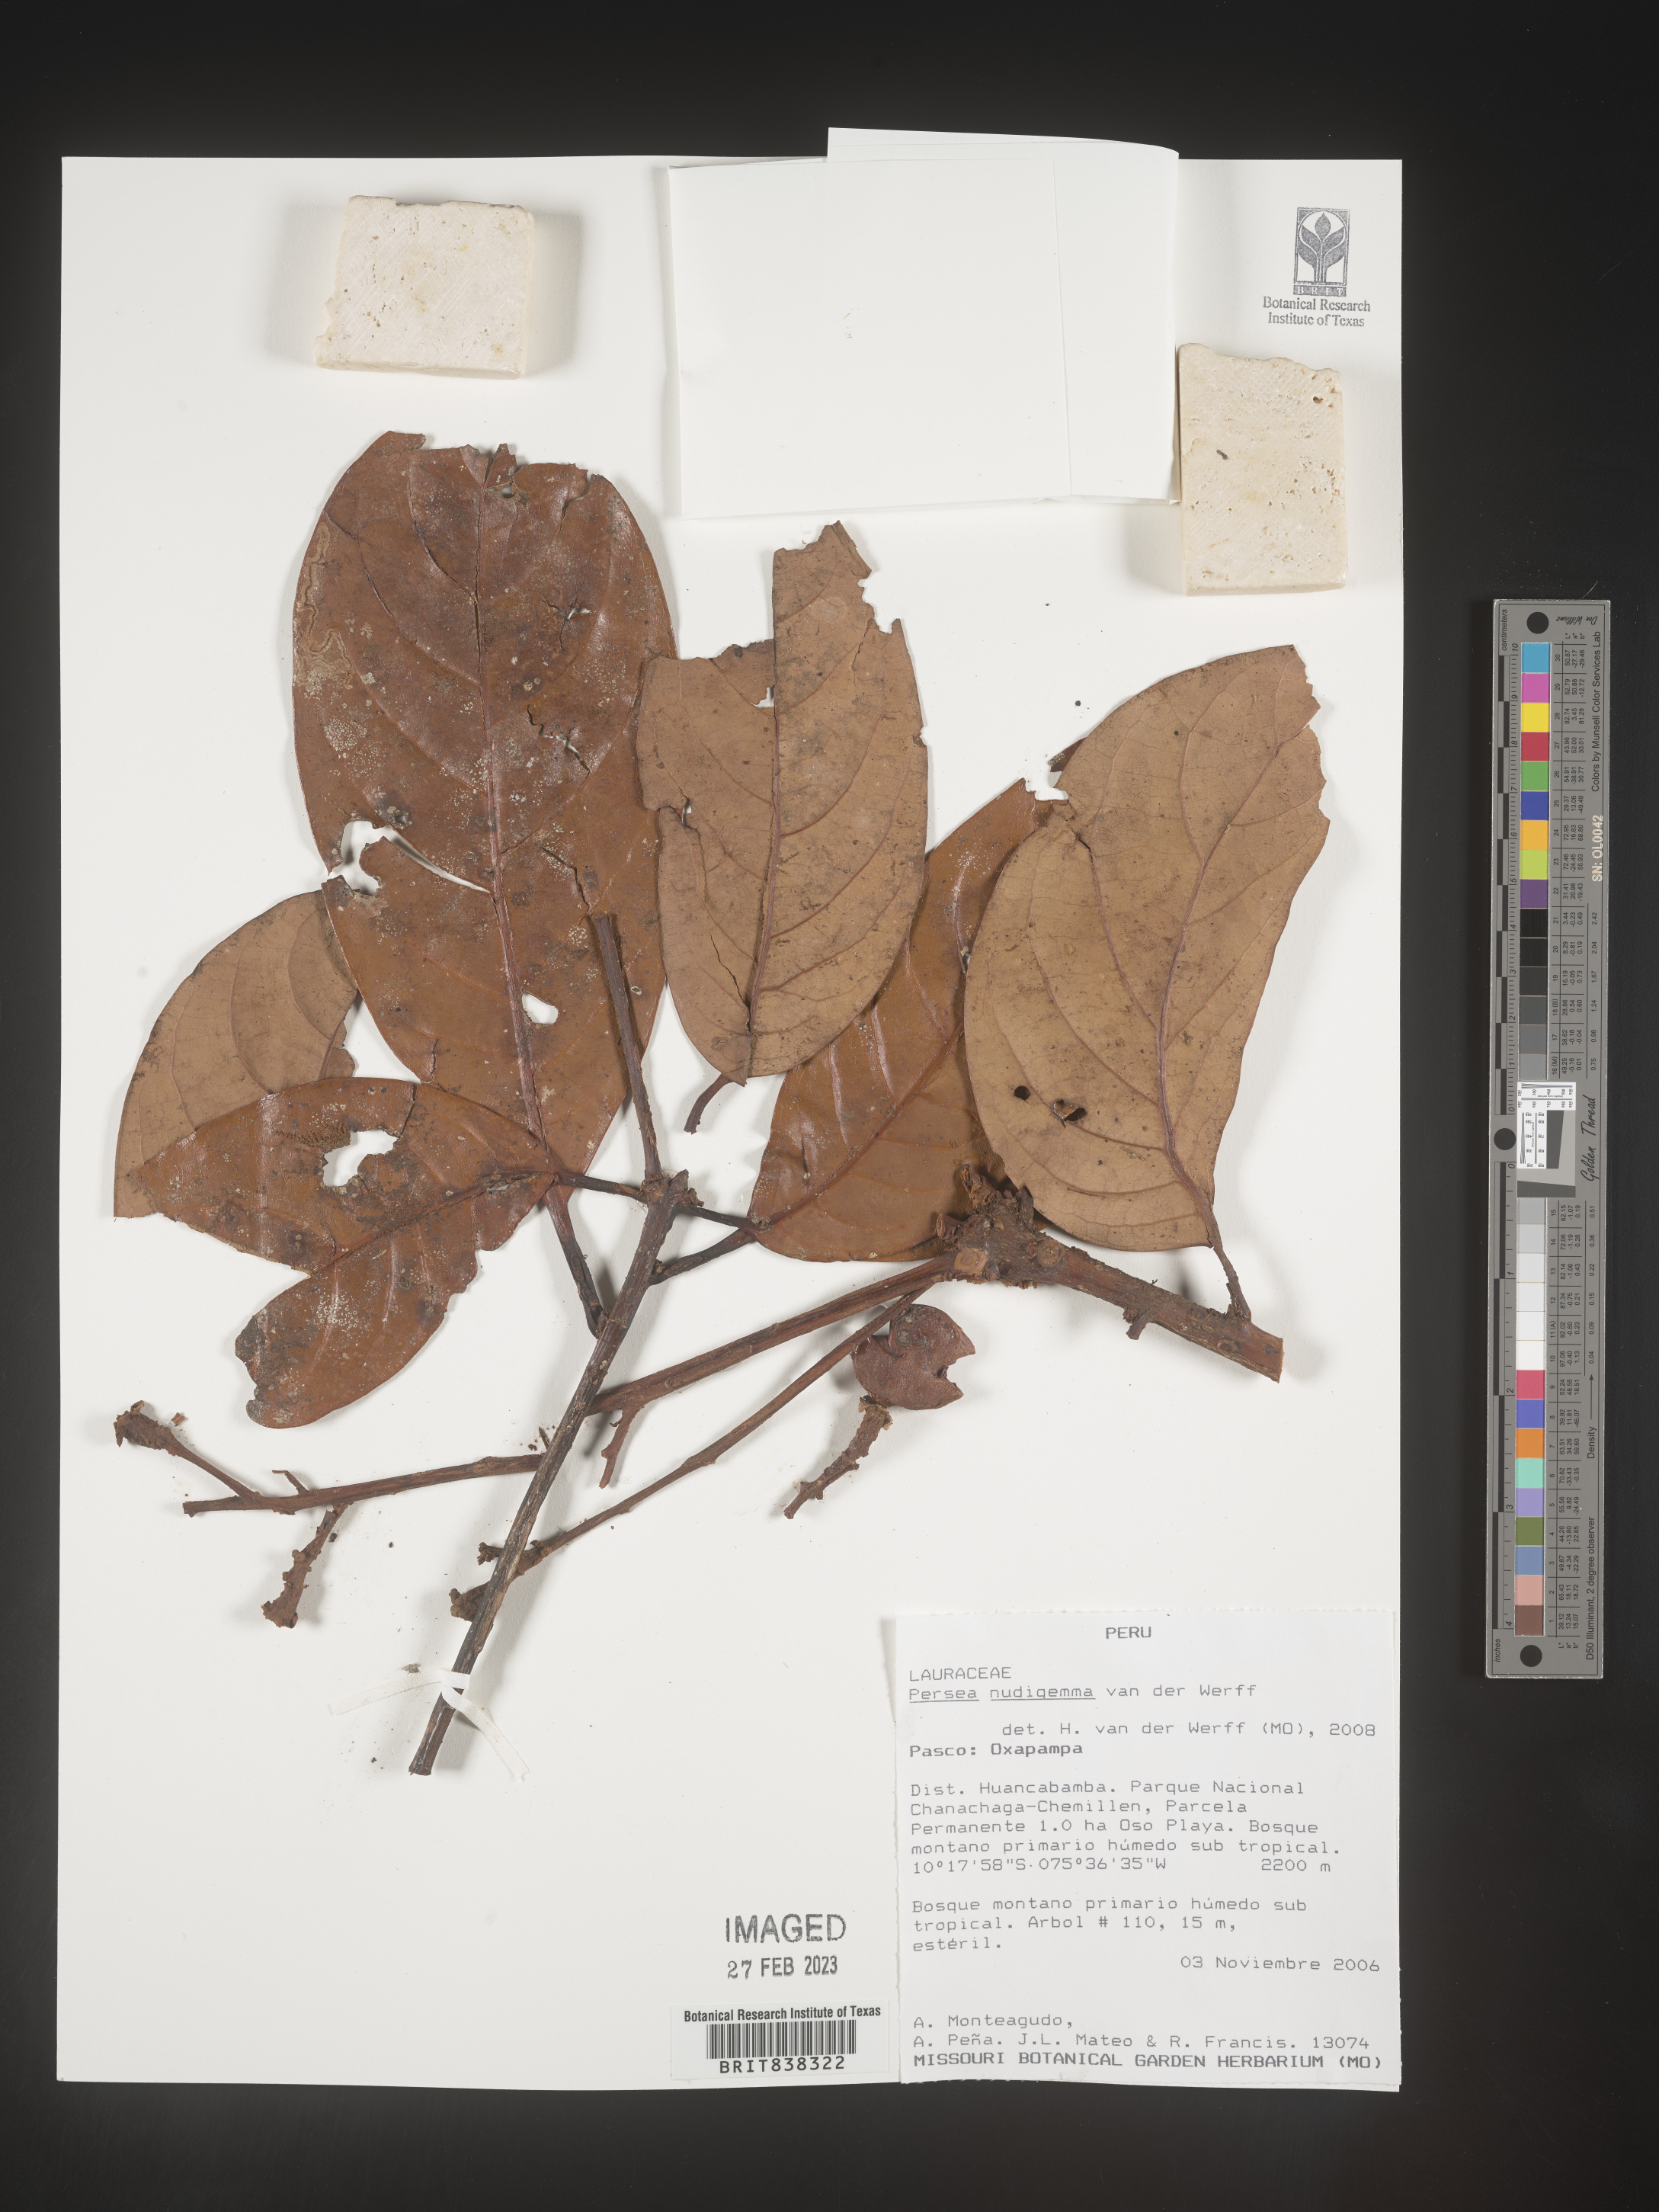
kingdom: Plantae
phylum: Tracheophyta
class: Magnoliopsida
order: Laurales
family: Lauraceae
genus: Persea
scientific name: Persea nudigemma
